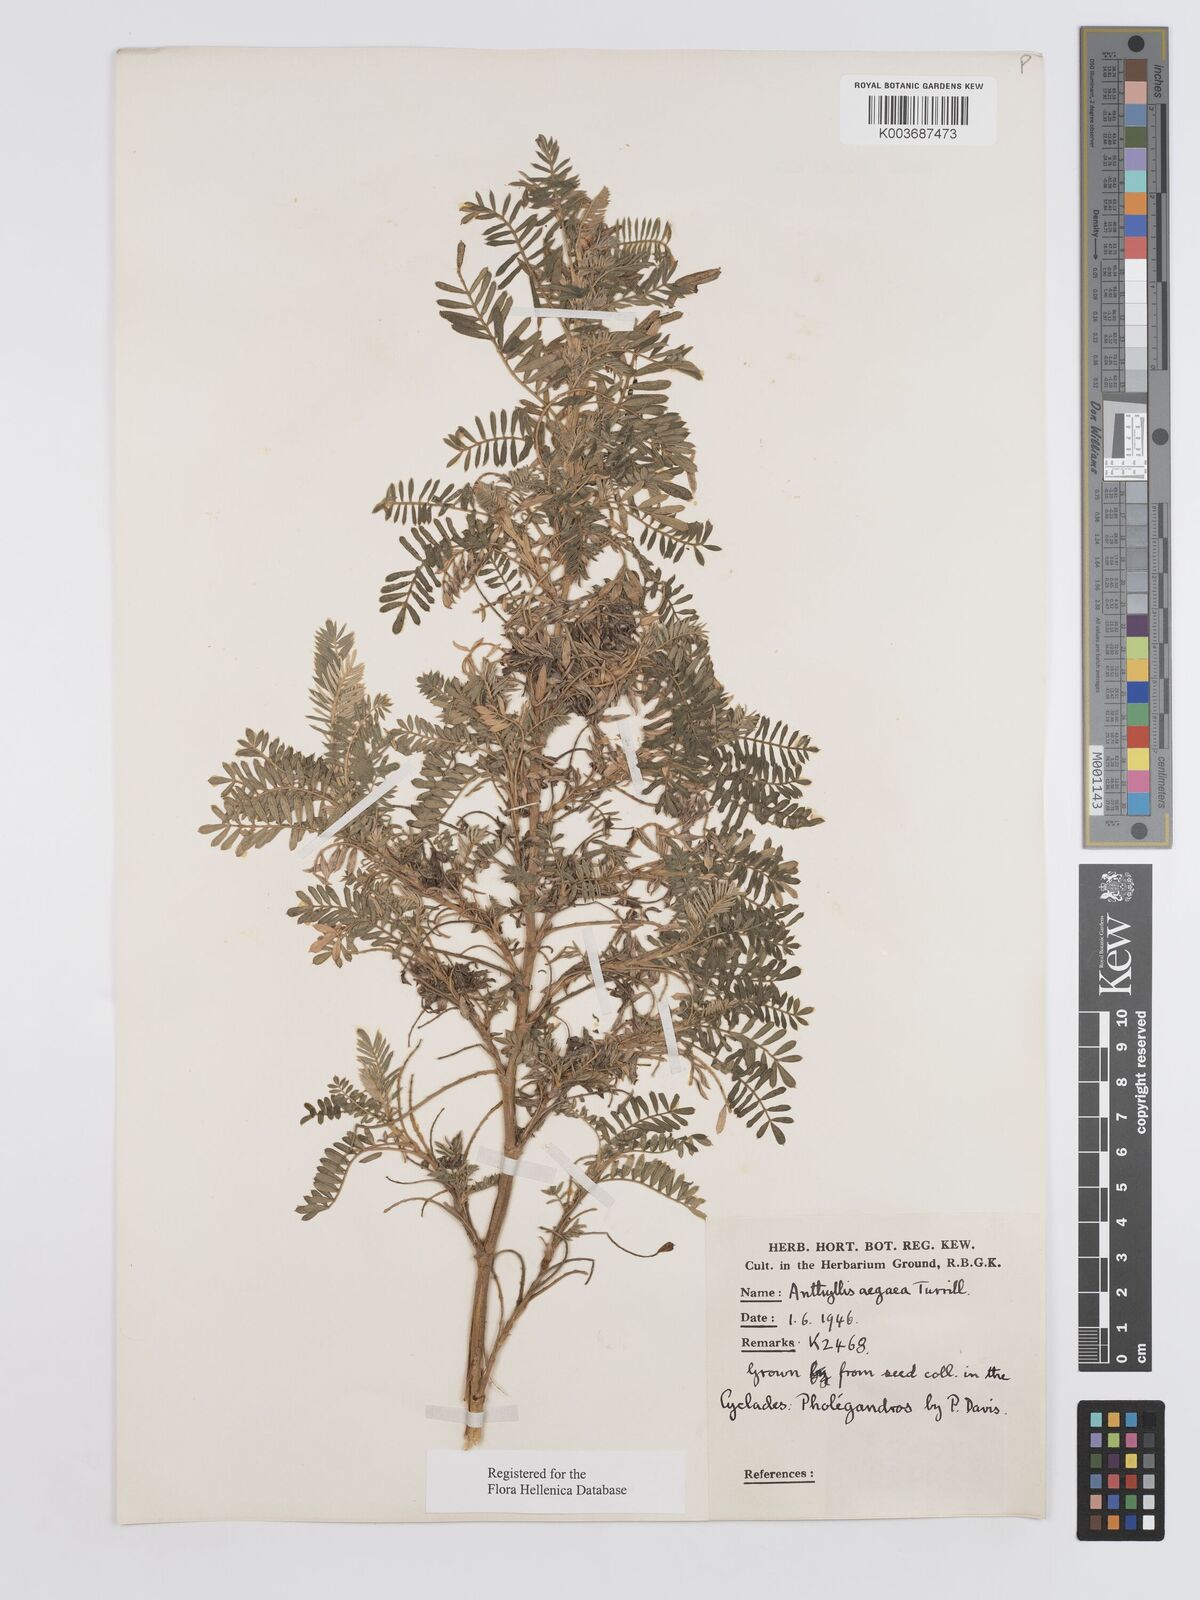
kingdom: Plantae
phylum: Tracheophyta
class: Magnoliopsida
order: Fabales
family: Fabaceae
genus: Anthyllis
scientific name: Anthyllis splendens
